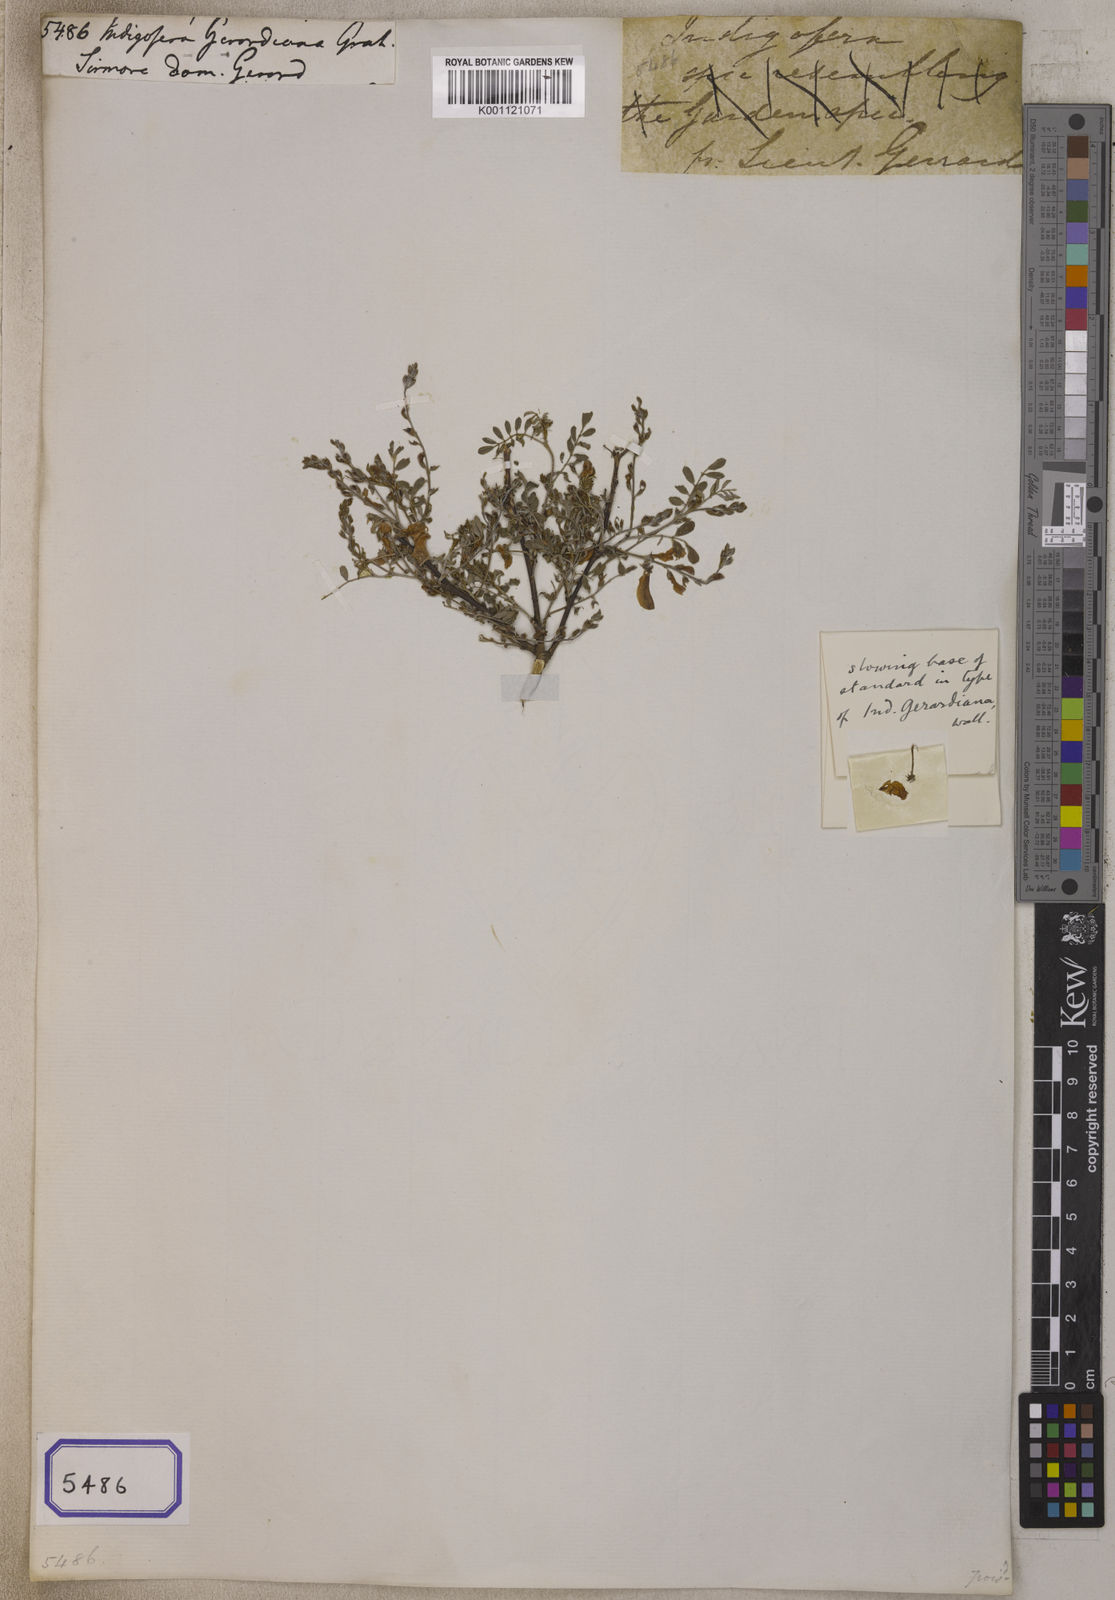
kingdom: Plantae
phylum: Tracheophyta
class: Magnoliopsida
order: Fabales
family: Fabaceae
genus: Indigofera
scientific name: Indigofera
